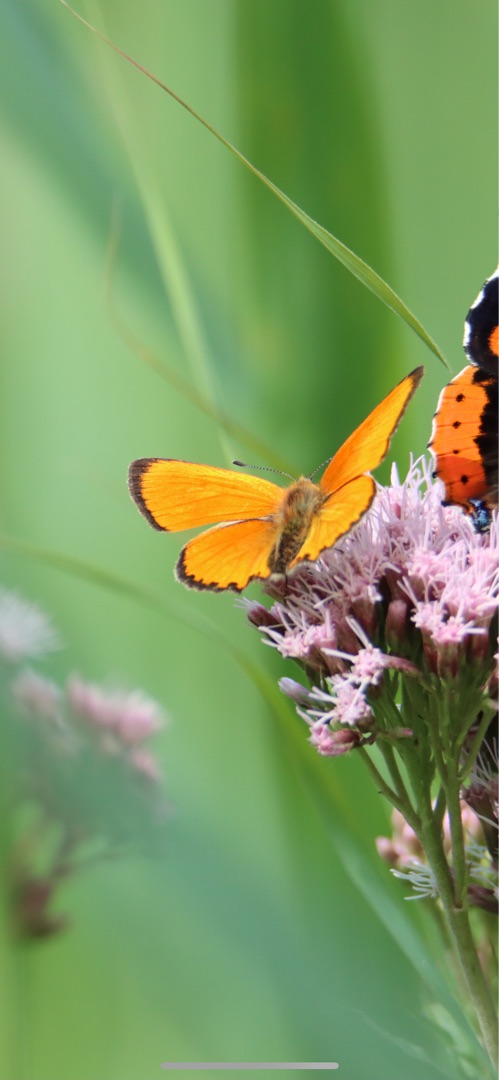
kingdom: Animalia
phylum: Arthropoda
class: Insecta
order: Lepidoptera
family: Lycaenidae
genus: Lycaena
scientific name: Lycaena virgaureae
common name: Dukatsommerfugl
